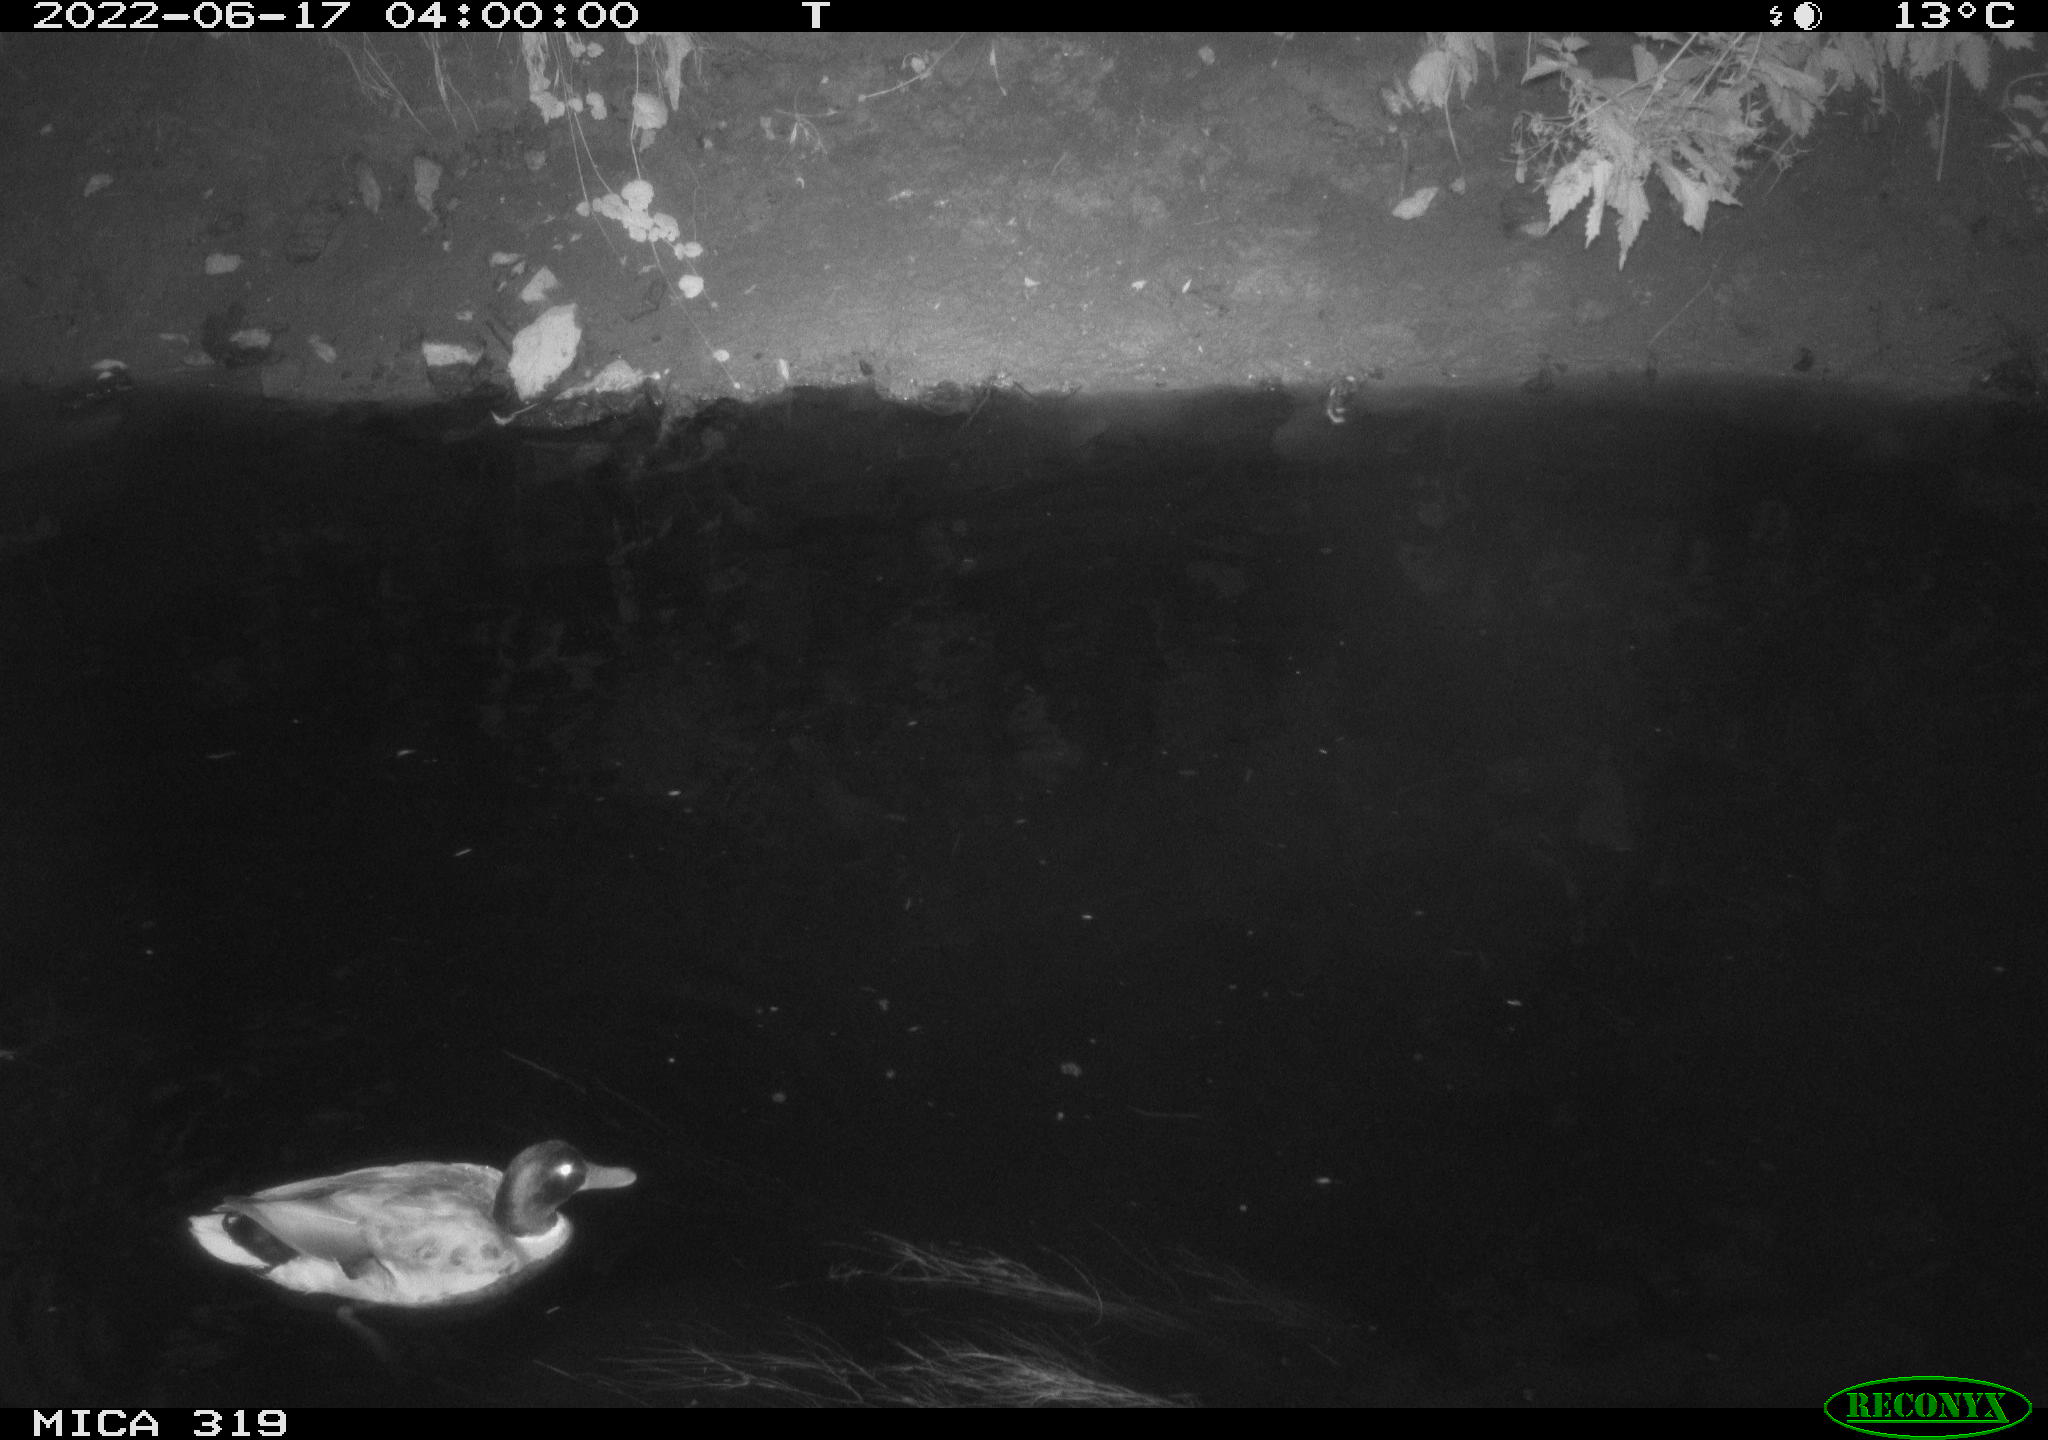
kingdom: Animalia
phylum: Chordata
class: Aves
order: Anseriformes
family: Anatidae
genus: Anas
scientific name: Anas
